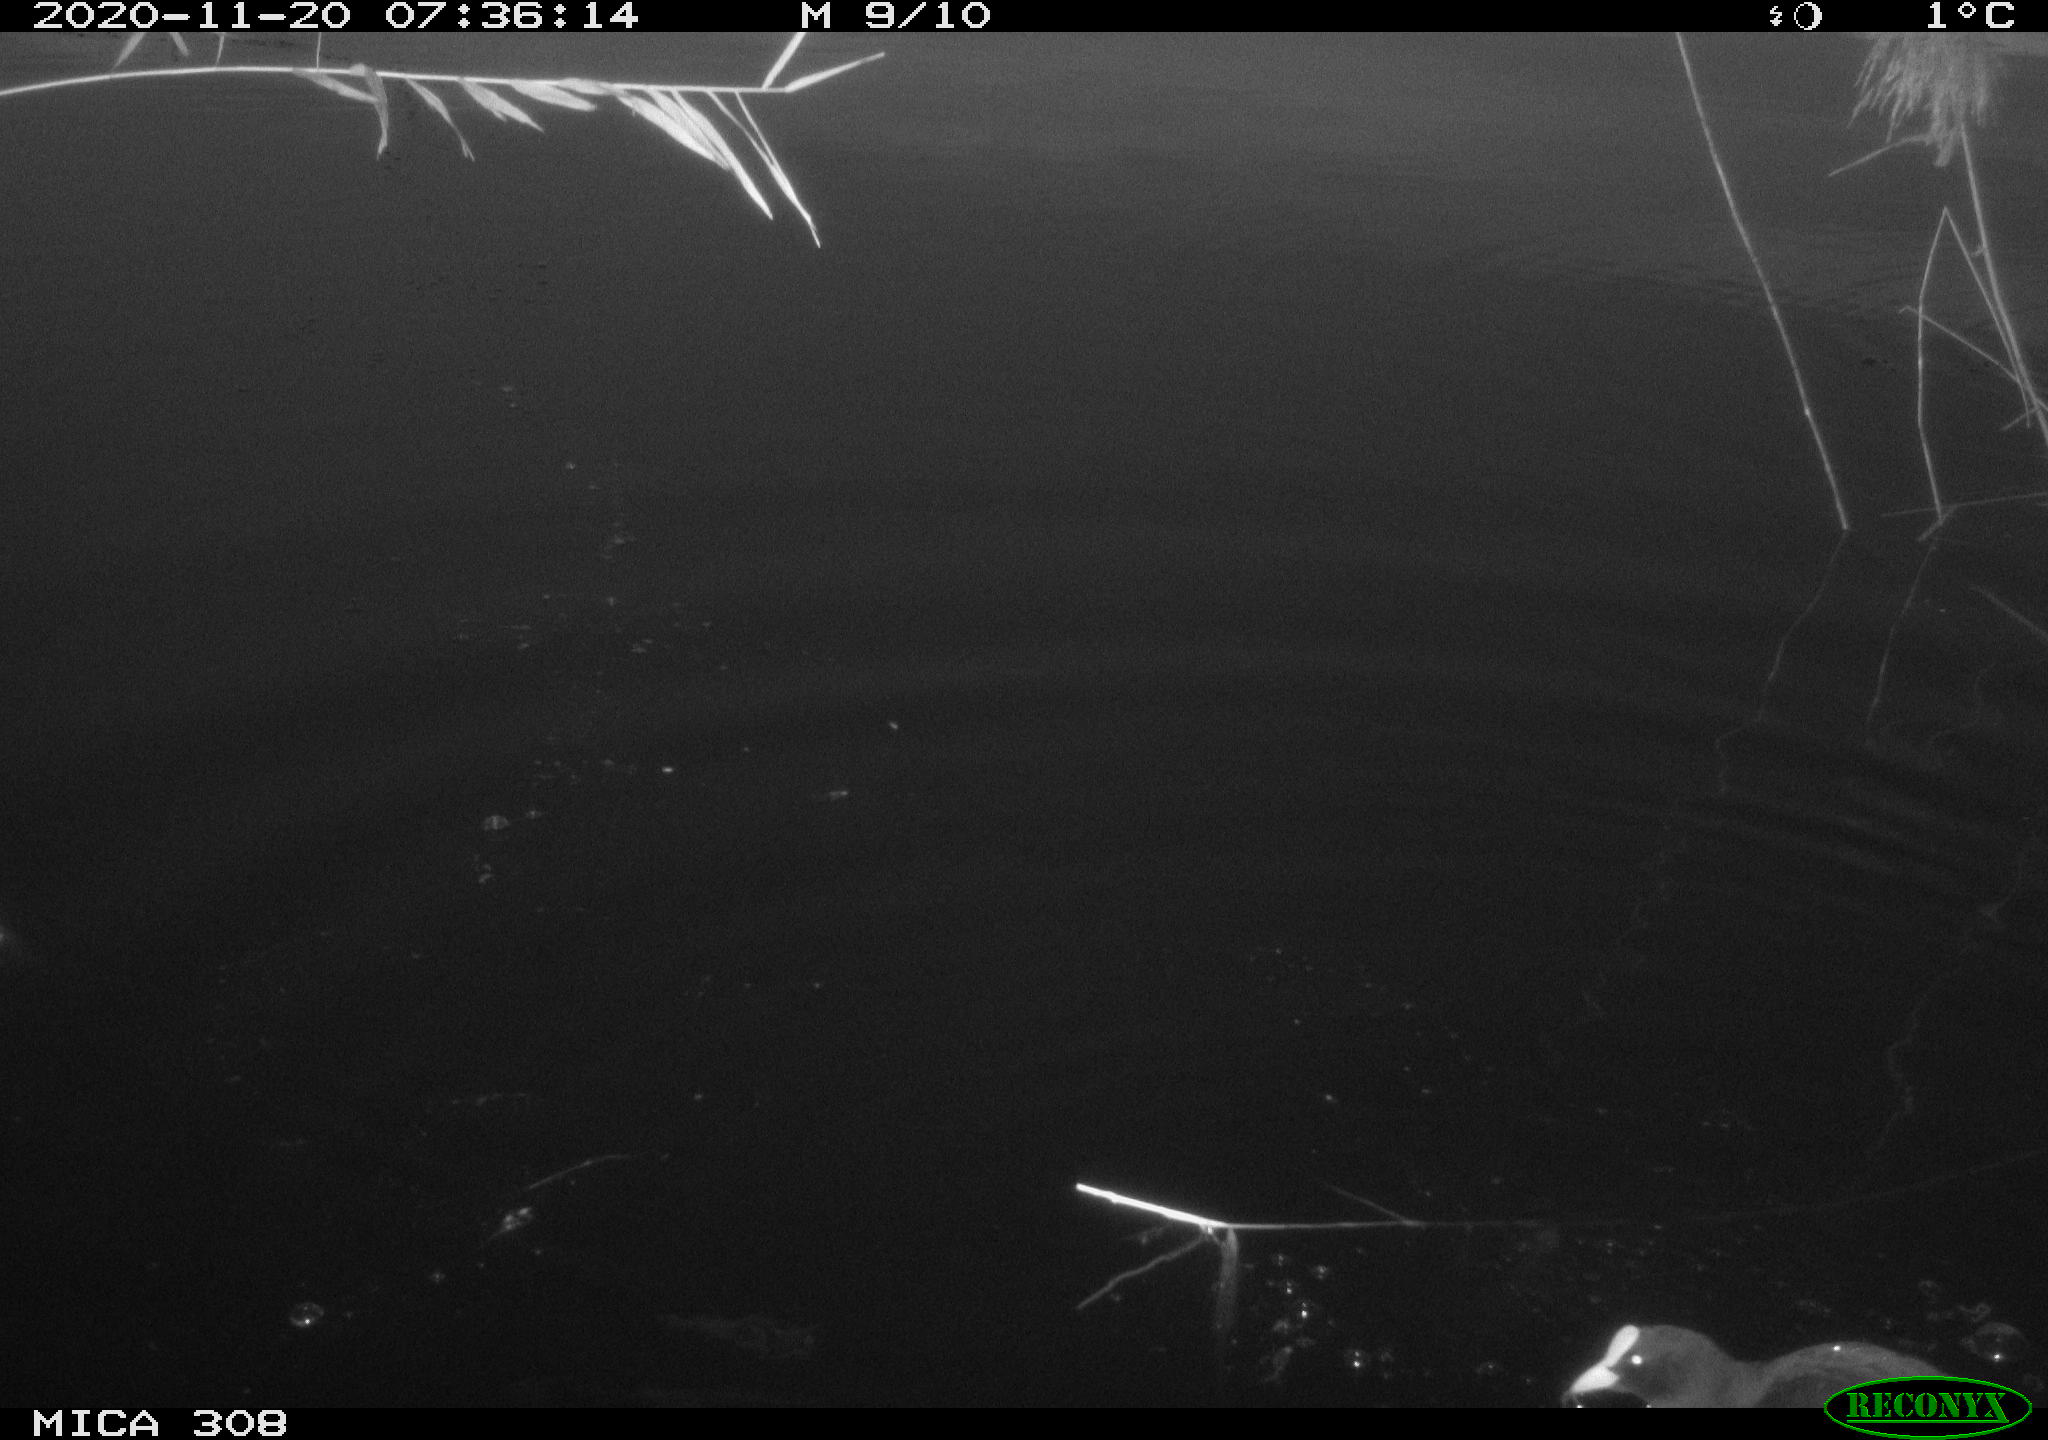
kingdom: Animalia
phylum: Chordata
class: Aves
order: Gruiformes
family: Rallidae
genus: Fulica
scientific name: Fulica atra
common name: Eurasian coot
